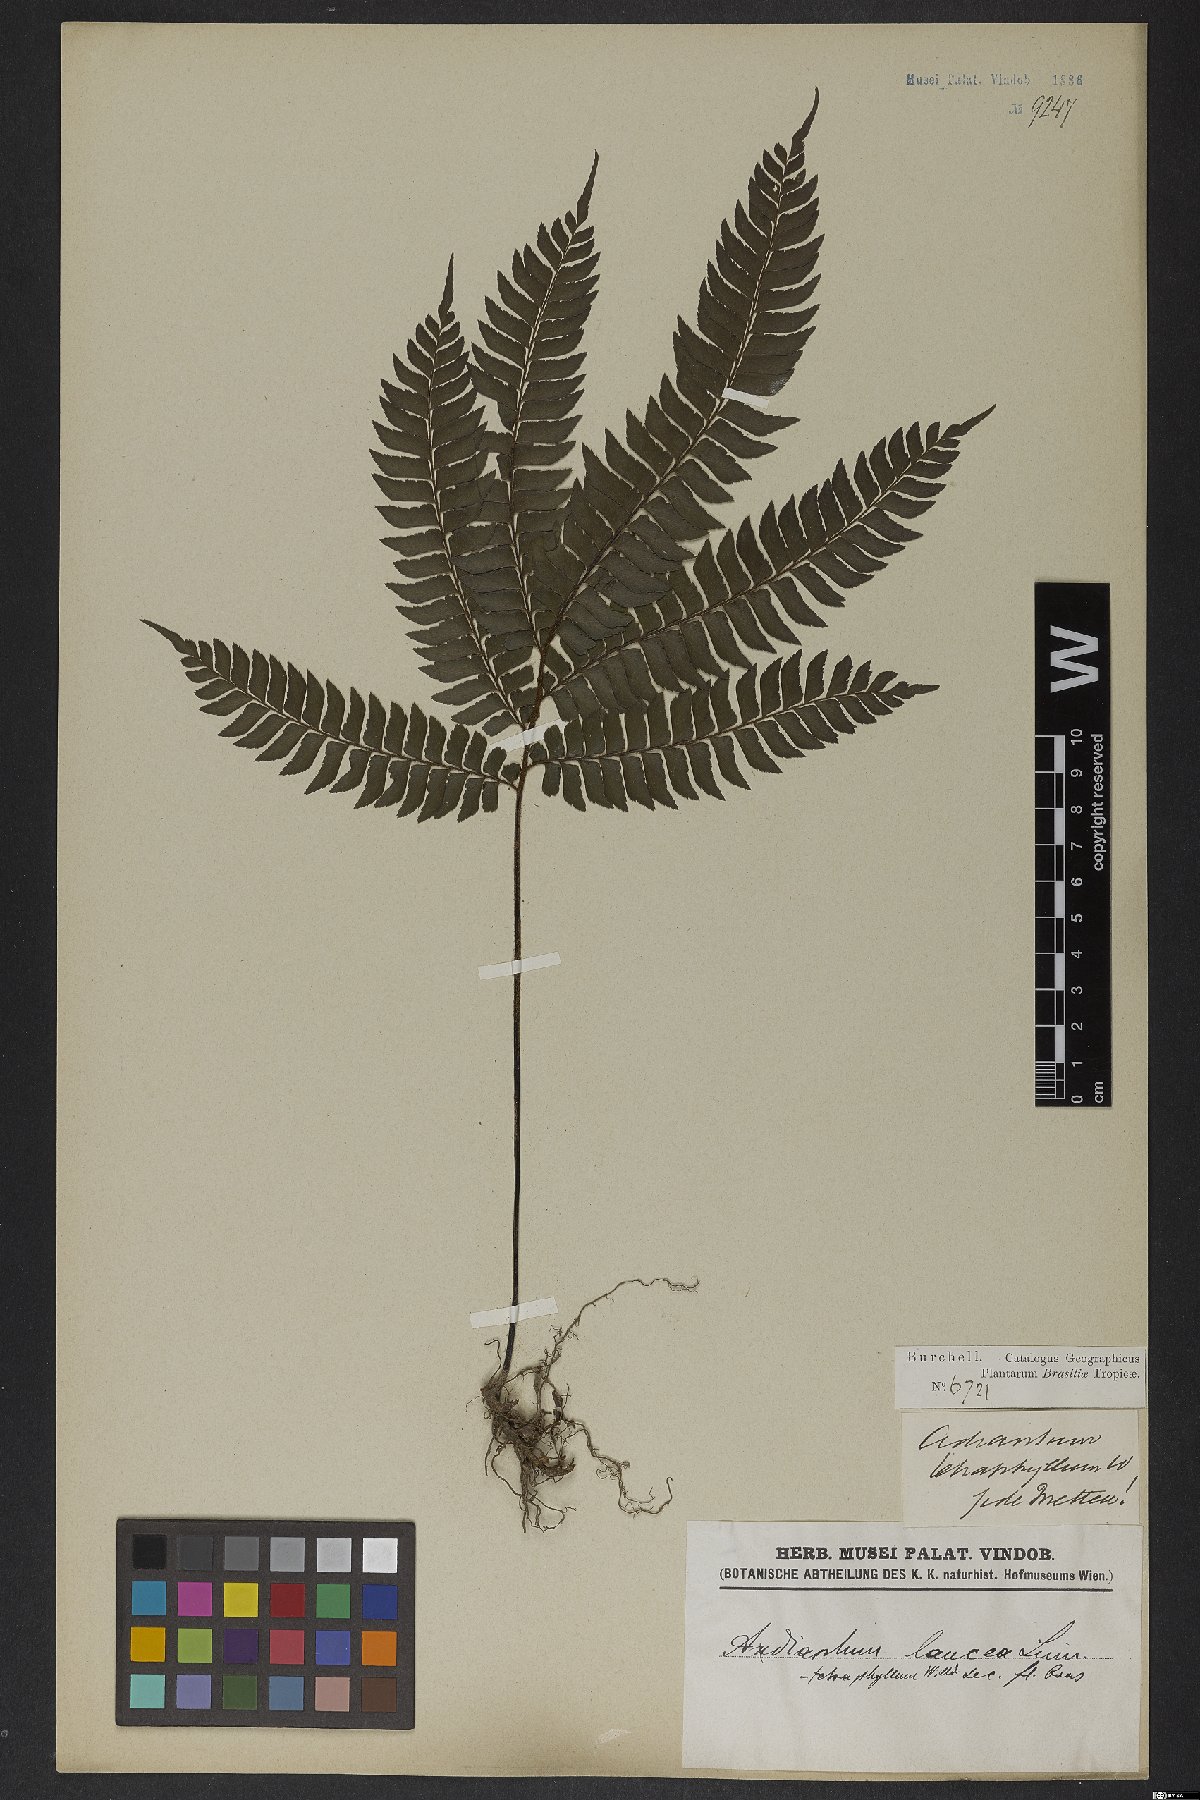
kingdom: Plantae
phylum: Tracheophyta
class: Polypodiopsida
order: Polypodiales
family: Pteridaceae
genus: Adiantum
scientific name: Adiantum tetraphyllum
